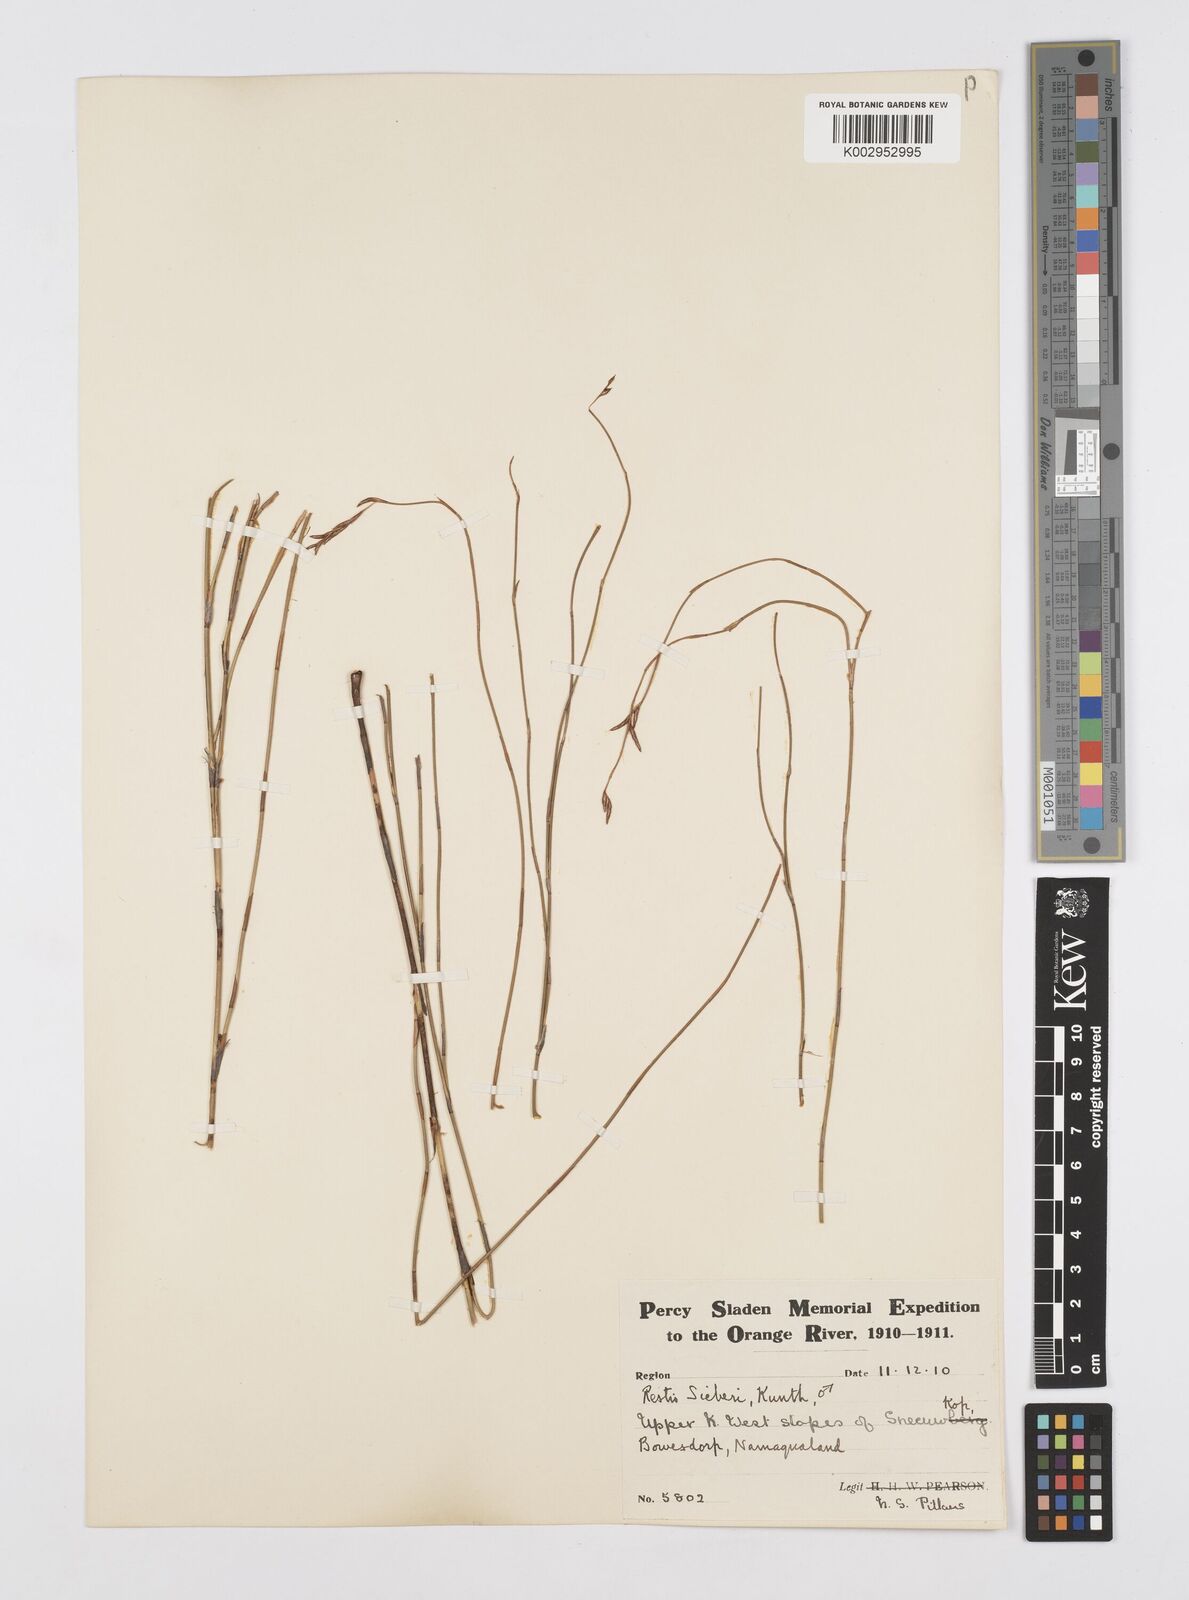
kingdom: Plantae
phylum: Tracheophyta
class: Liliopsida
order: Poales
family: Restionaceae
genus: Restio
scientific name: Restio sieberi
